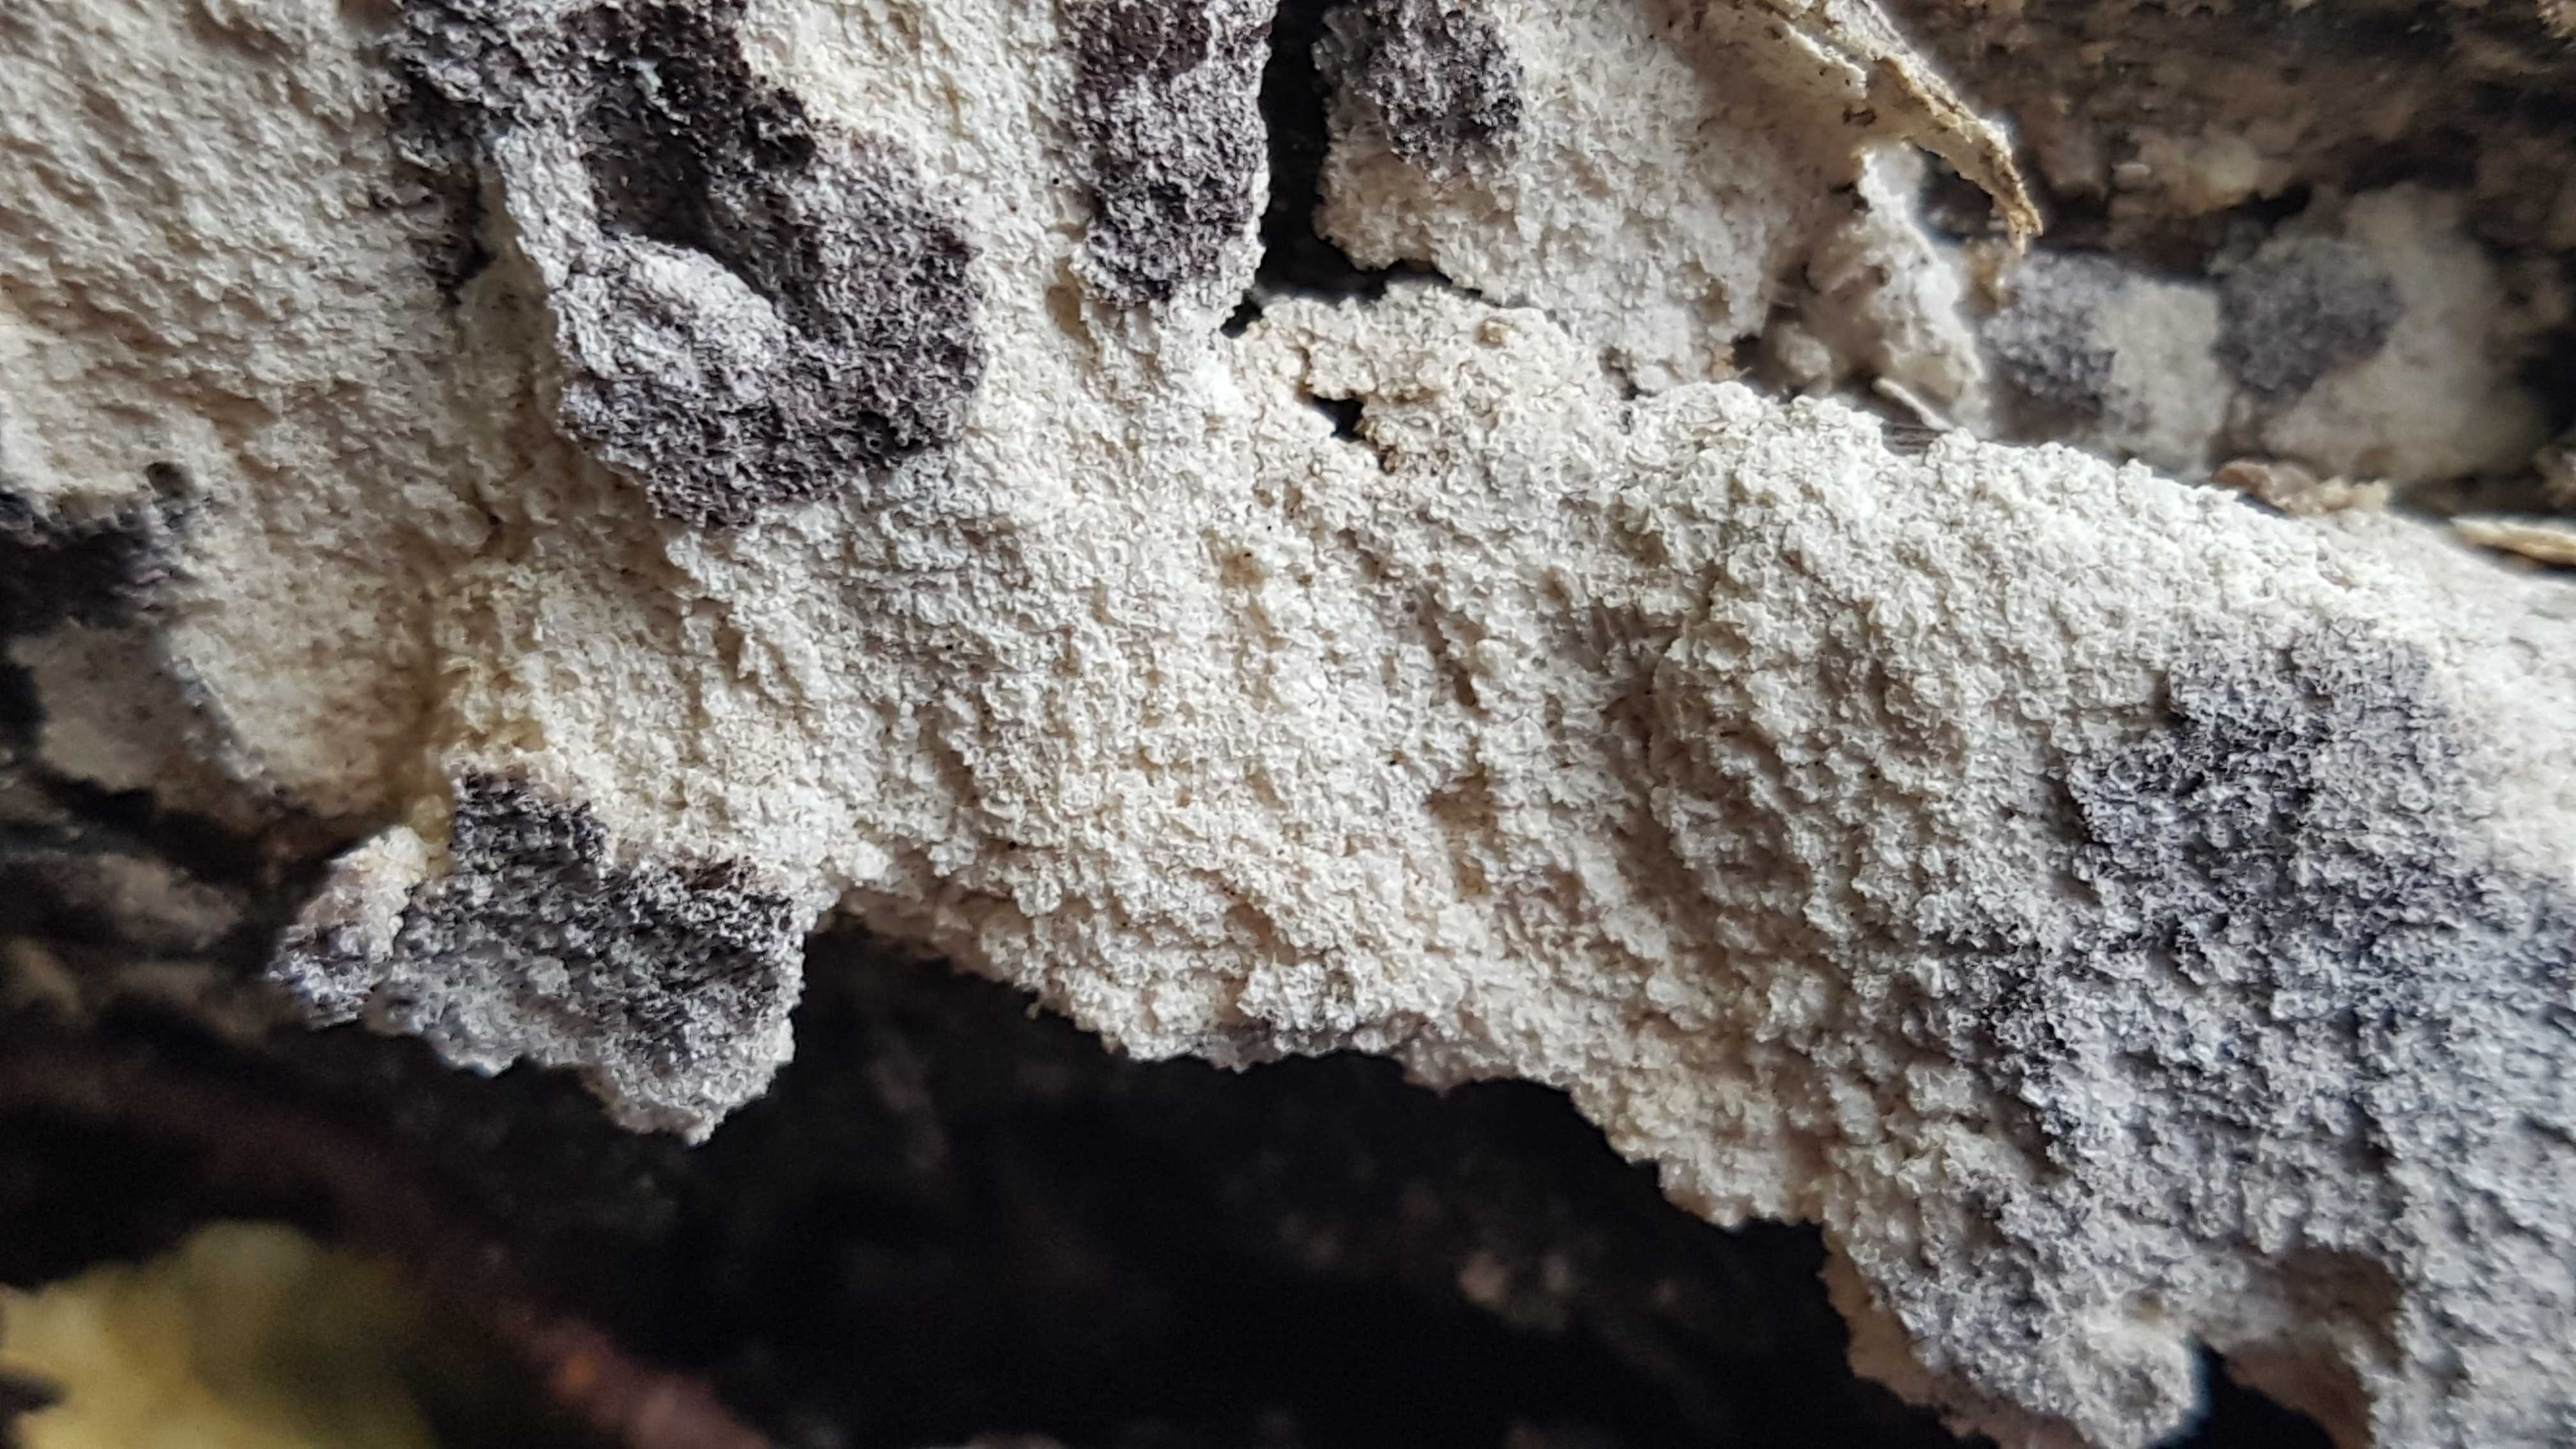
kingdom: Protozoa
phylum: Mycetozoa
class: Myxomycetes
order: Physarales
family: Physaraceae
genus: Fuligo
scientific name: Fuligo
